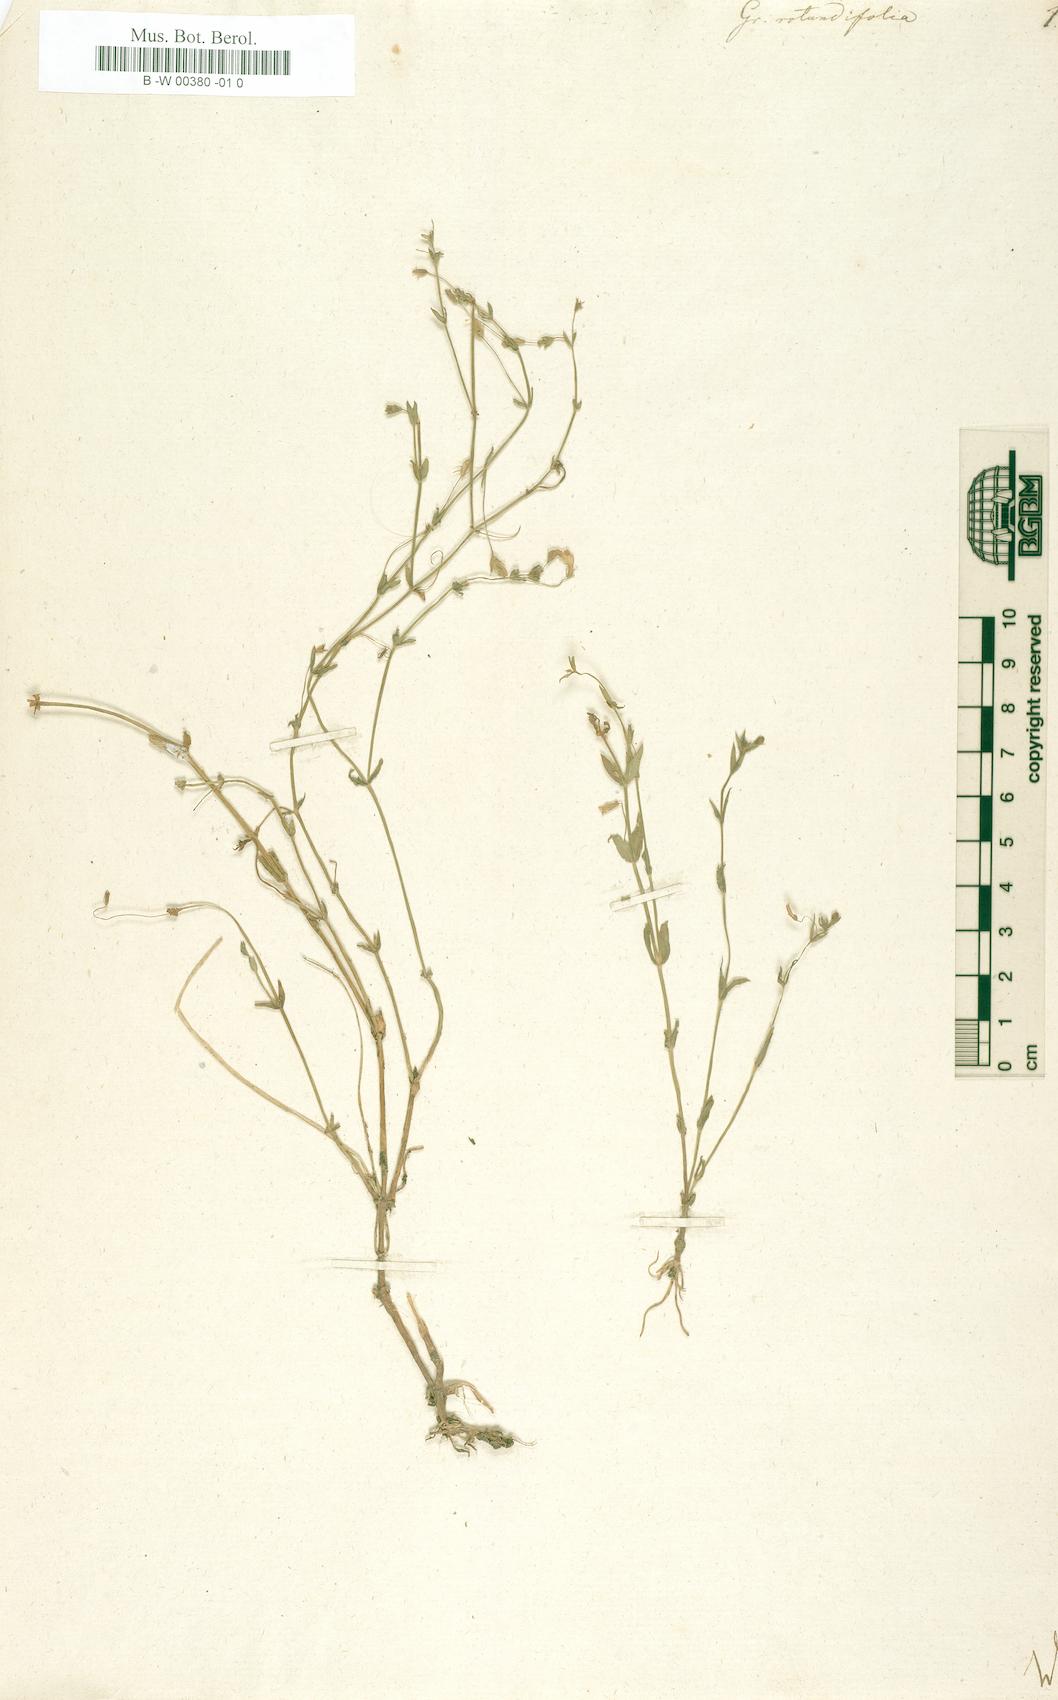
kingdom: Plantae
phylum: Tracheophyta
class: Magnoliopsida
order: Lamiales
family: Linderniaceae
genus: Lindernia
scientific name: Lindernia rotundifolia
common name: Baby’s tears
